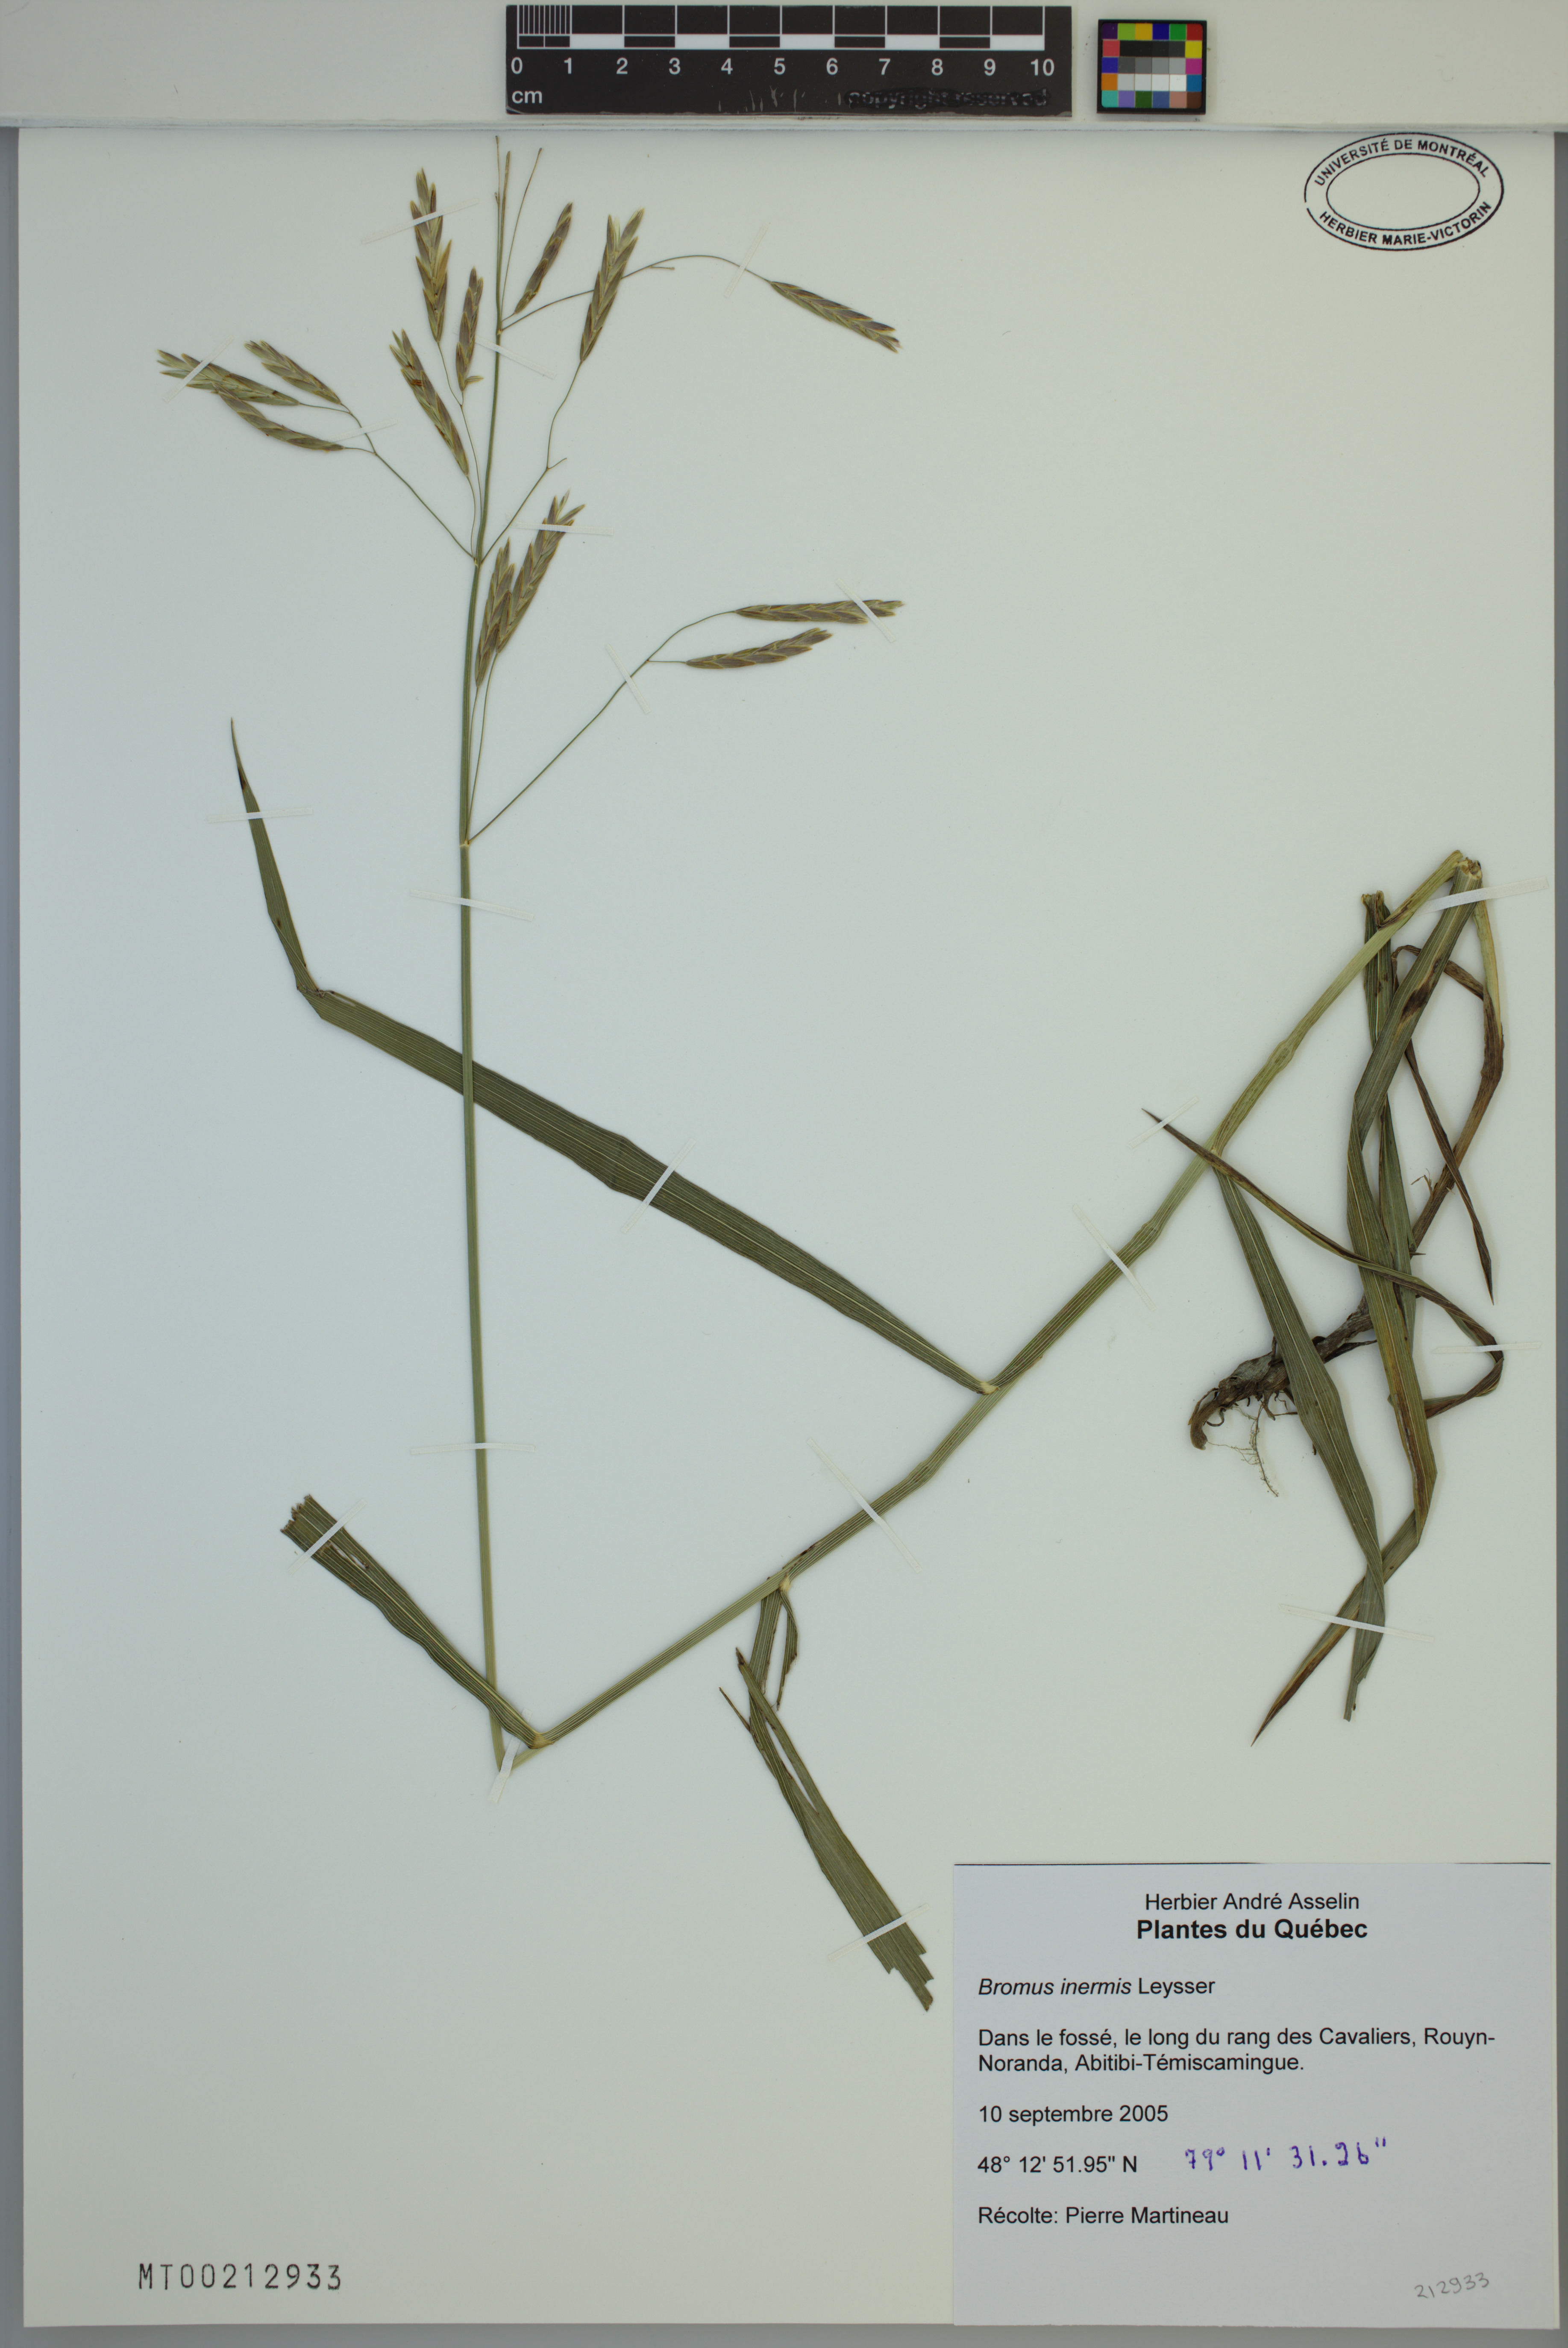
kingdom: Plantae
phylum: Tracheophyta
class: Liliopsida
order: Poales
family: Poaceae
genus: Bromus
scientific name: Bromus inermis
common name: Smooth brome
